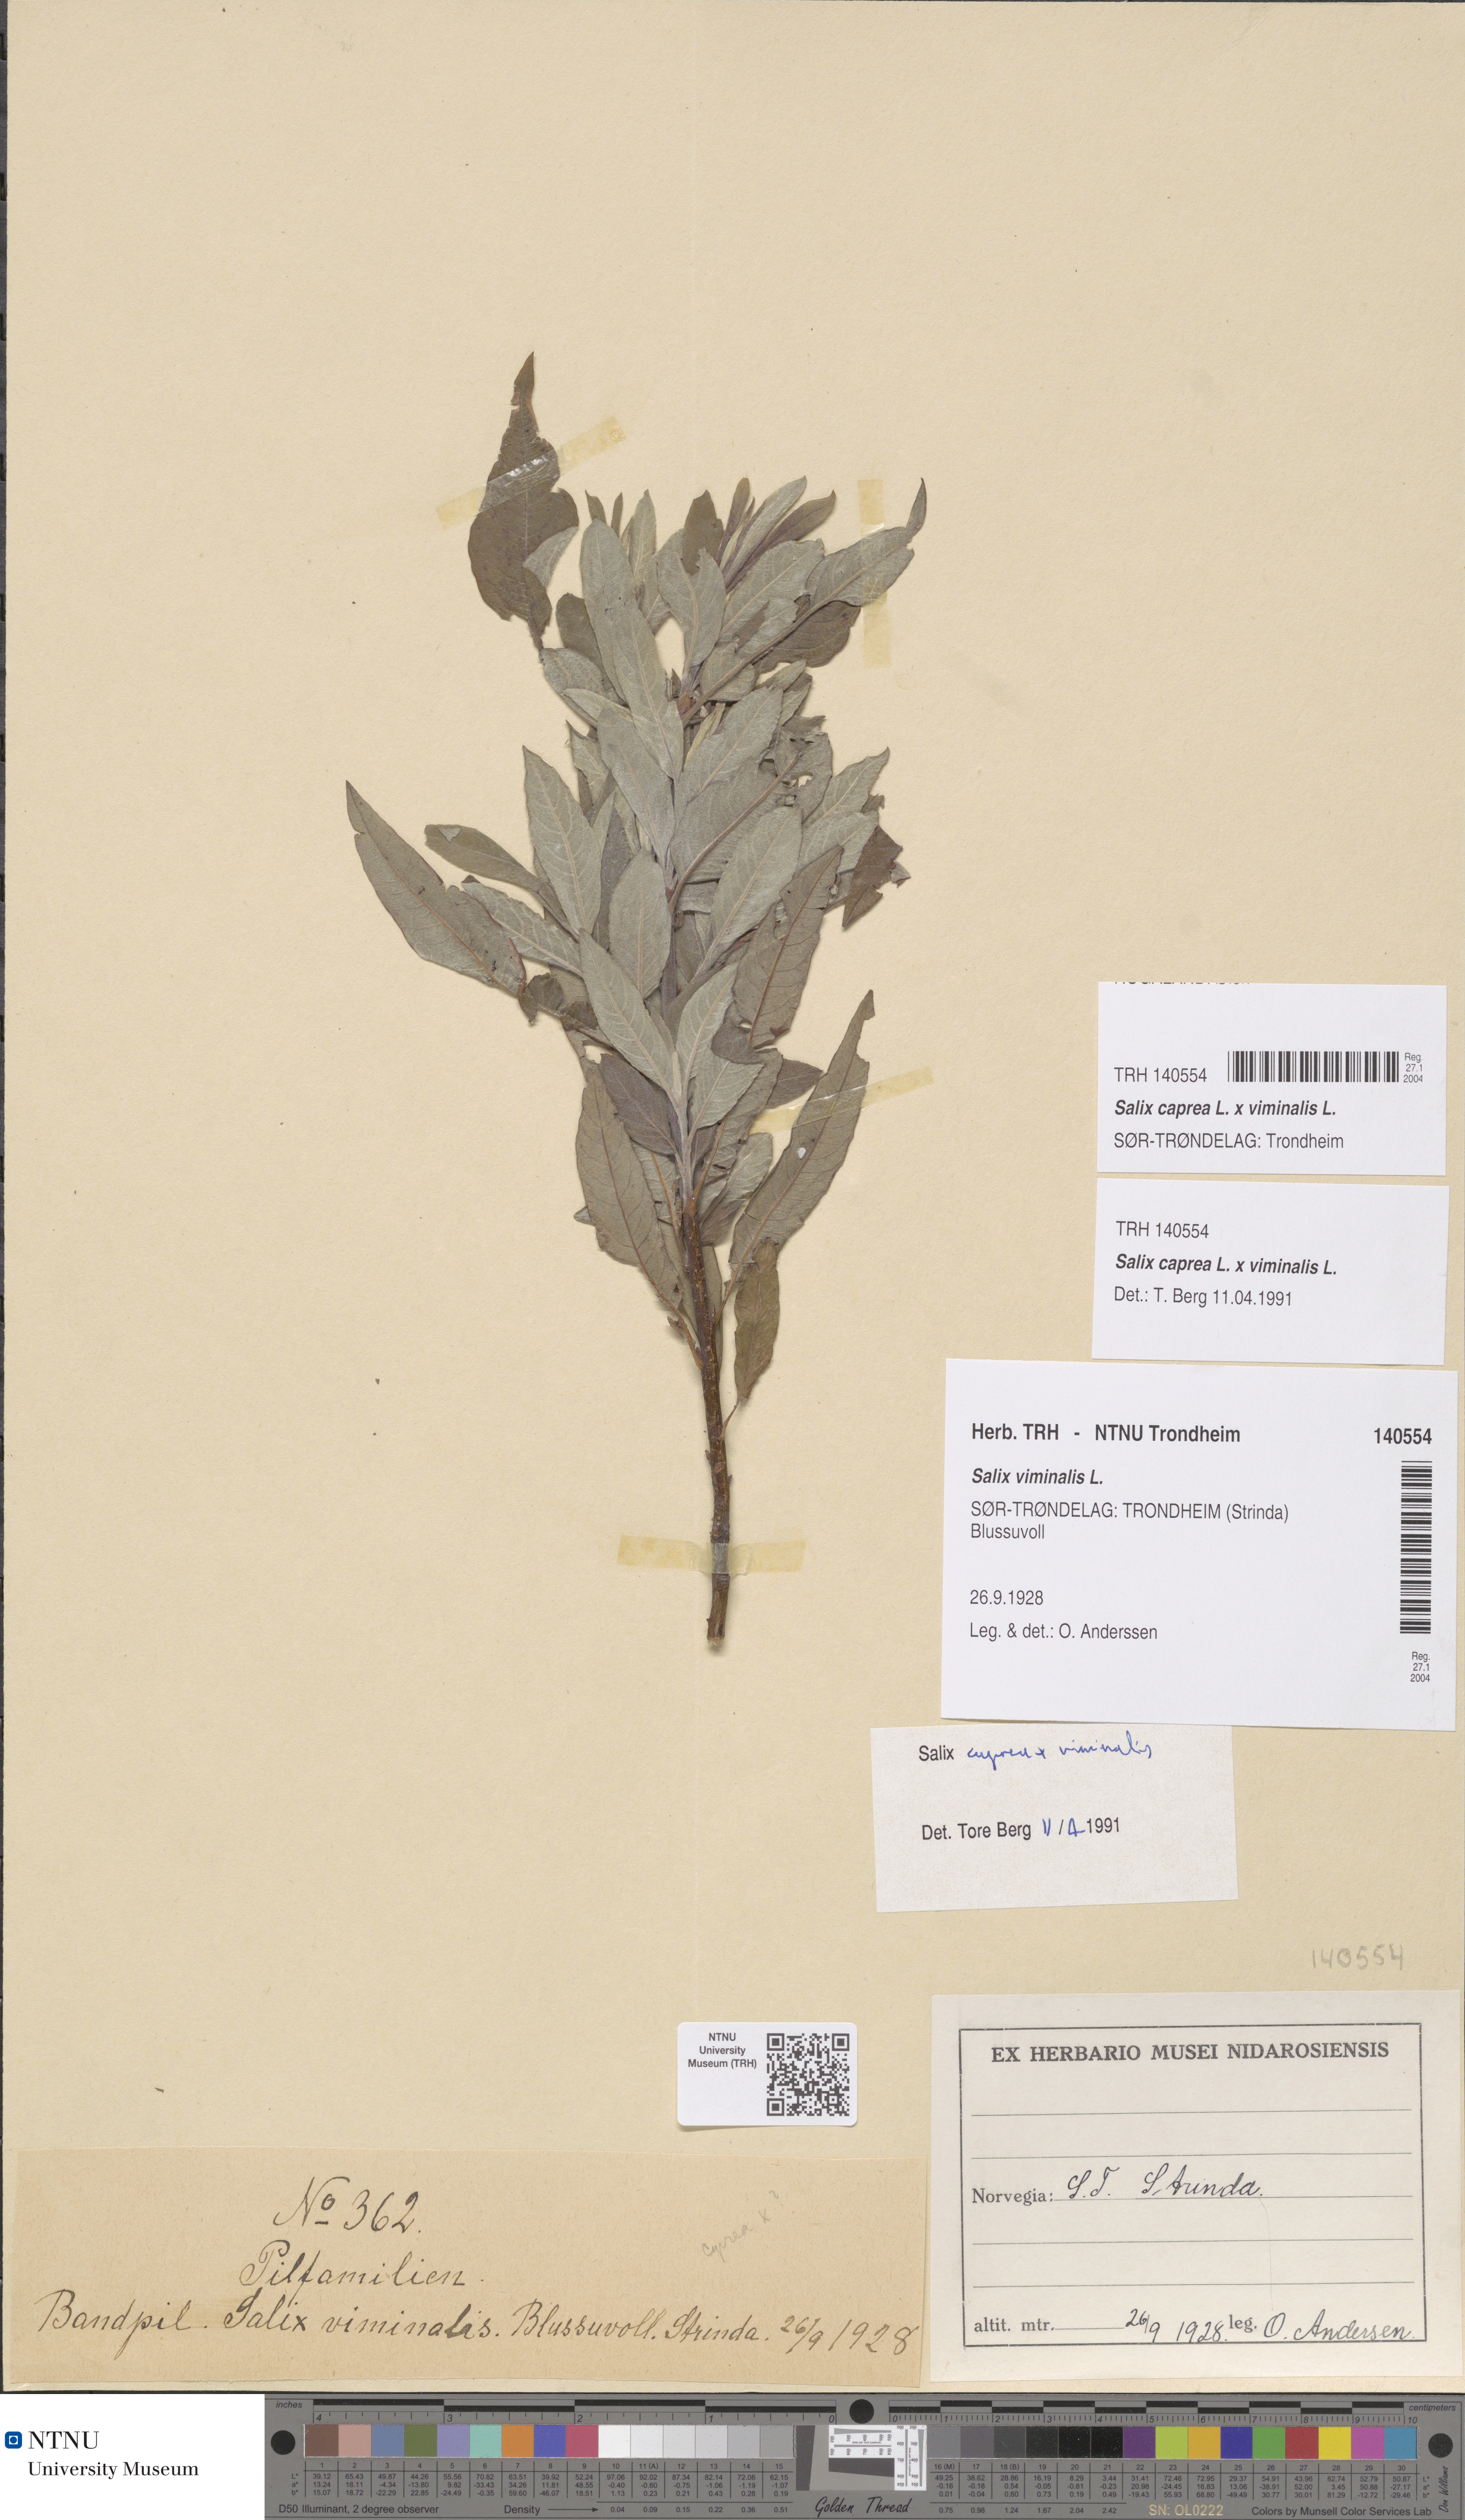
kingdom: Plantae
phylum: Tracheophyta
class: Magnoliopsida
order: Malpighiales
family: Salicaceae
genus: Salix
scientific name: Salix smithiana
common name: Silky-leaved osier
